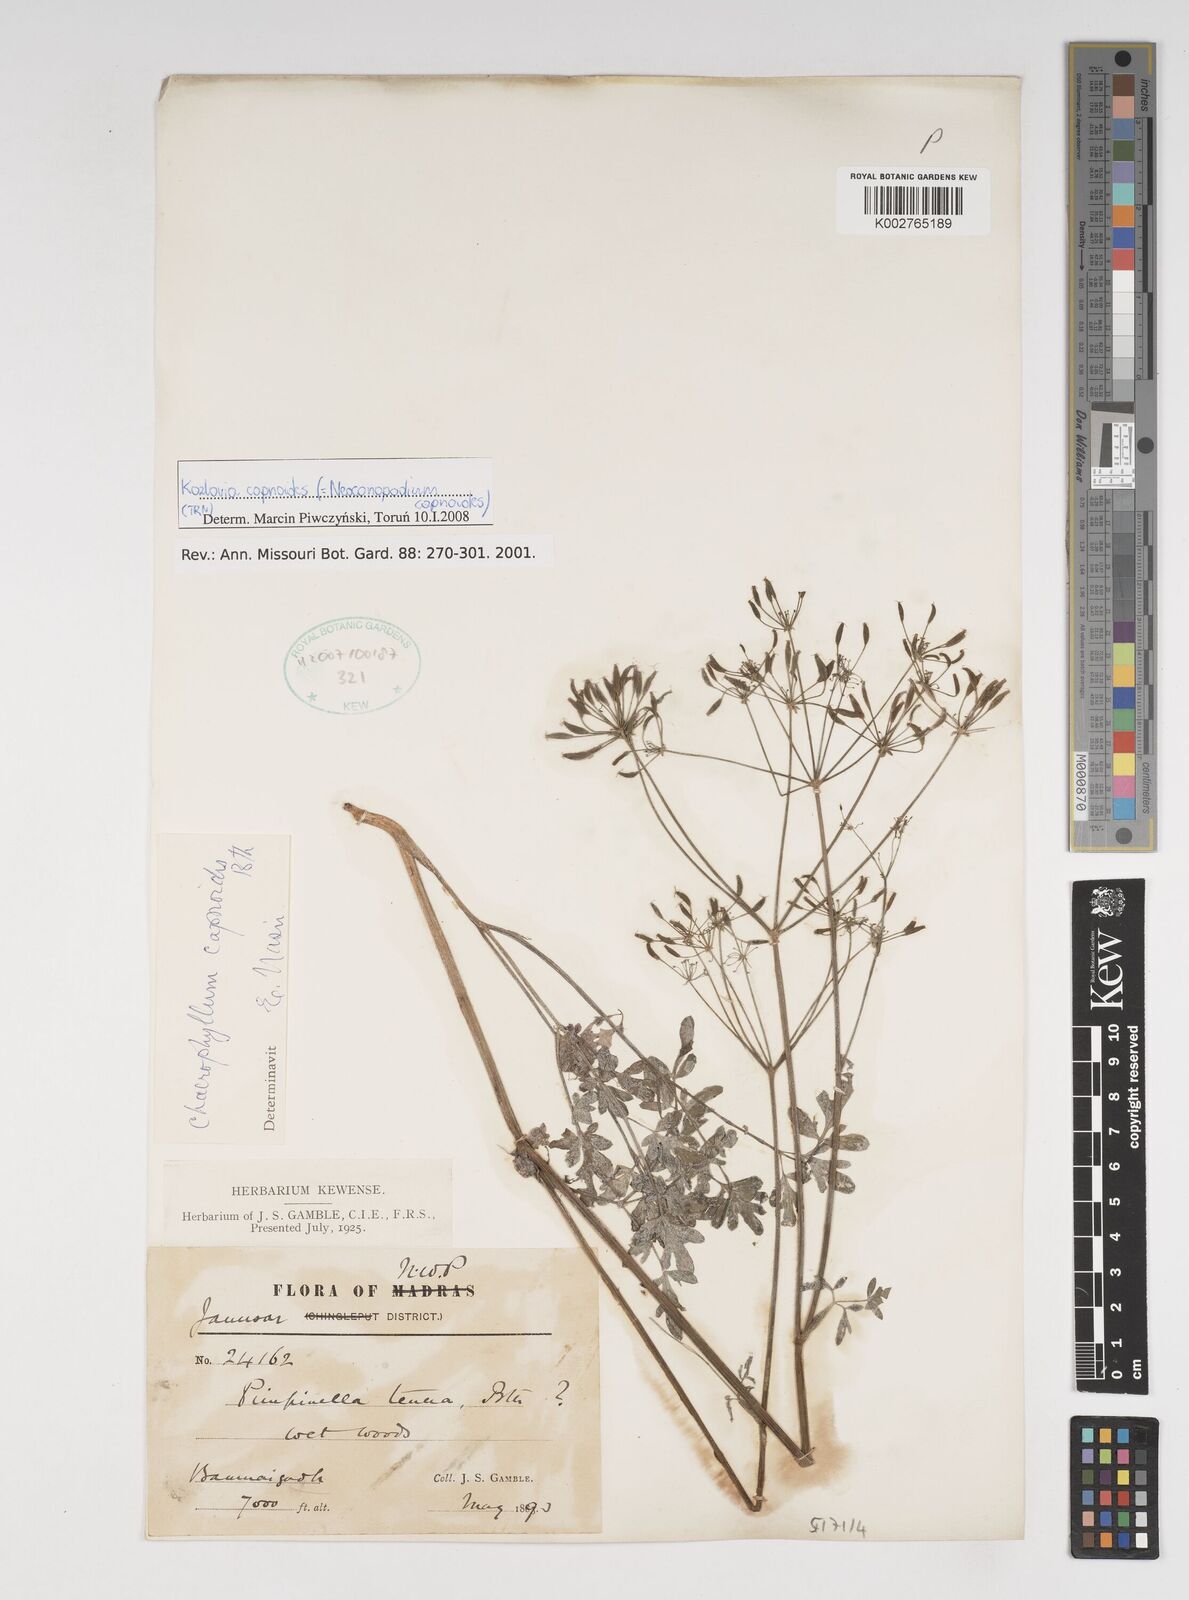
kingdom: Plantae
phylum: Tracheophyta
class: Magnoliopsida
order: Apiales
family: Apiaceae
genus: Kozlovia
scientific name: Kozlovia capnoides
